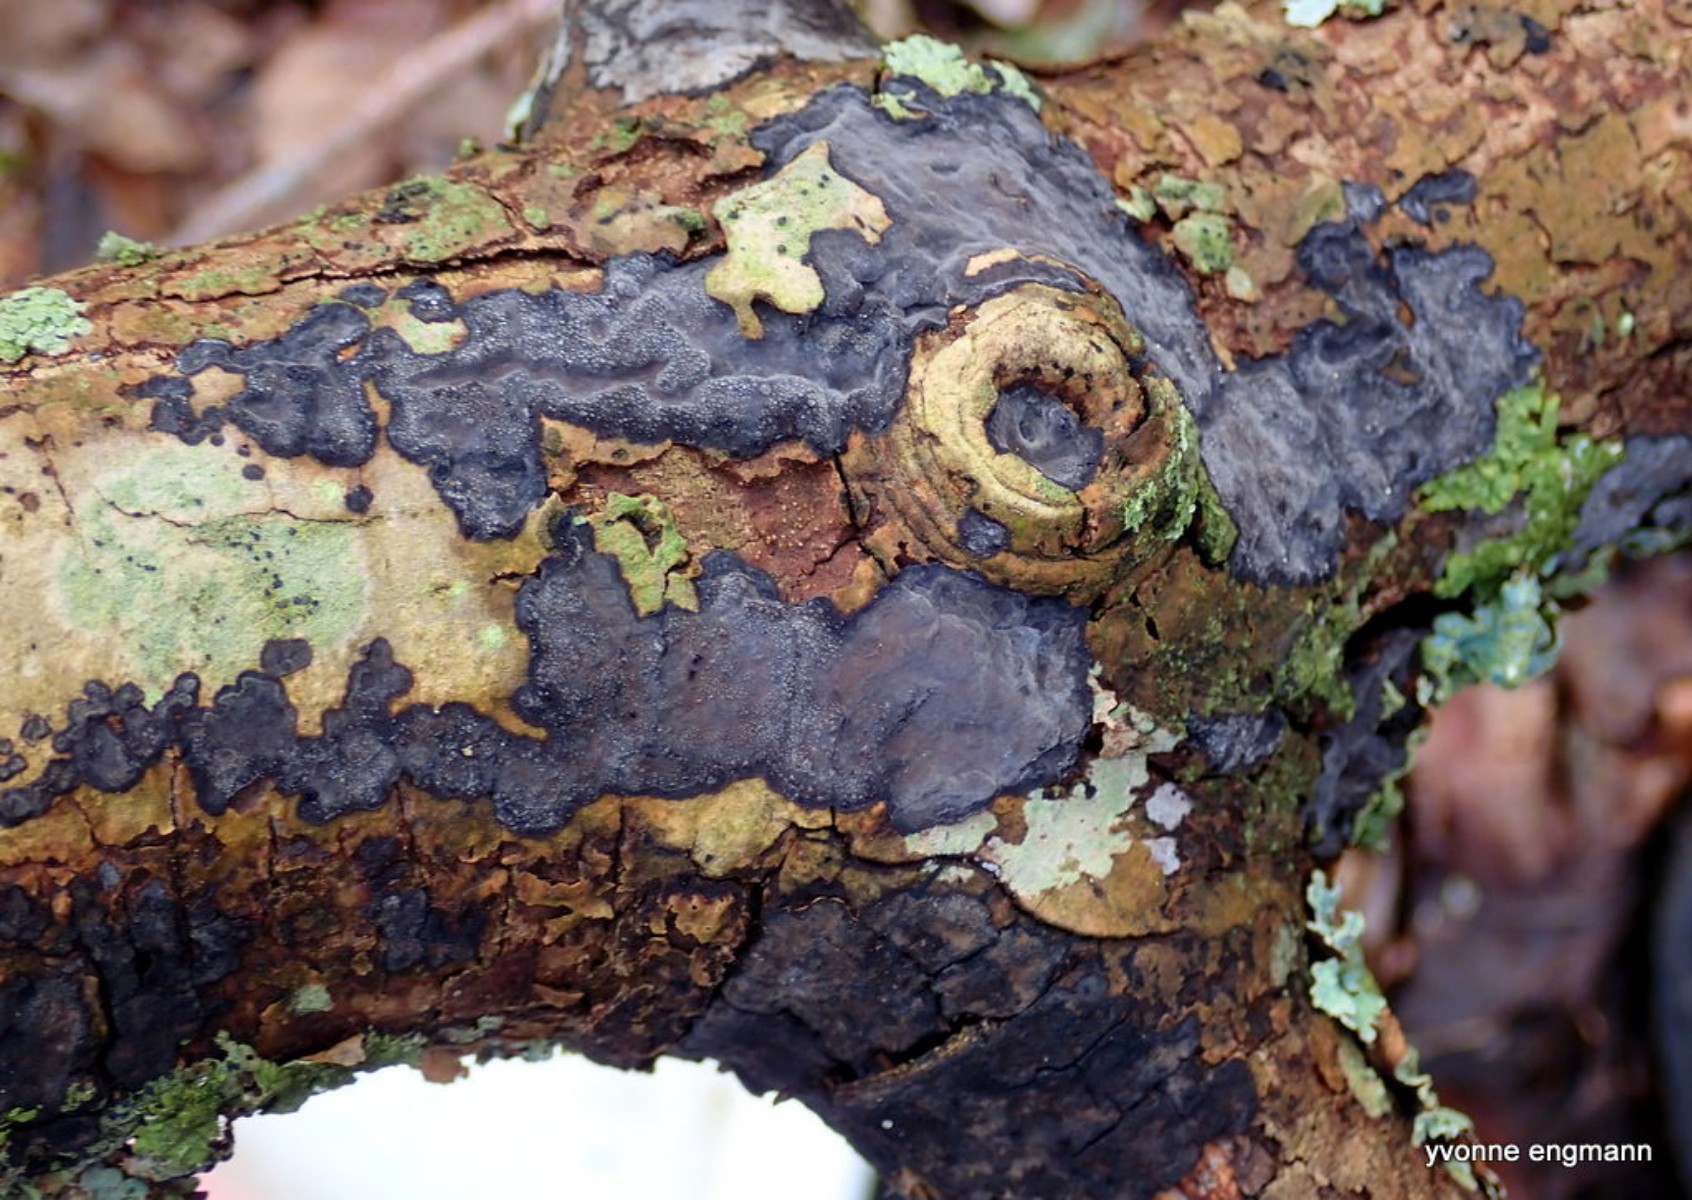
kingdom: Fungi
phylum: Basidiomycota
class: Agaricomycetes
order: Russulales
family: Peniophoraceae
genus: Peniophora
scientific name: Peniophora limitata
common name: mørkrandet voksskind
